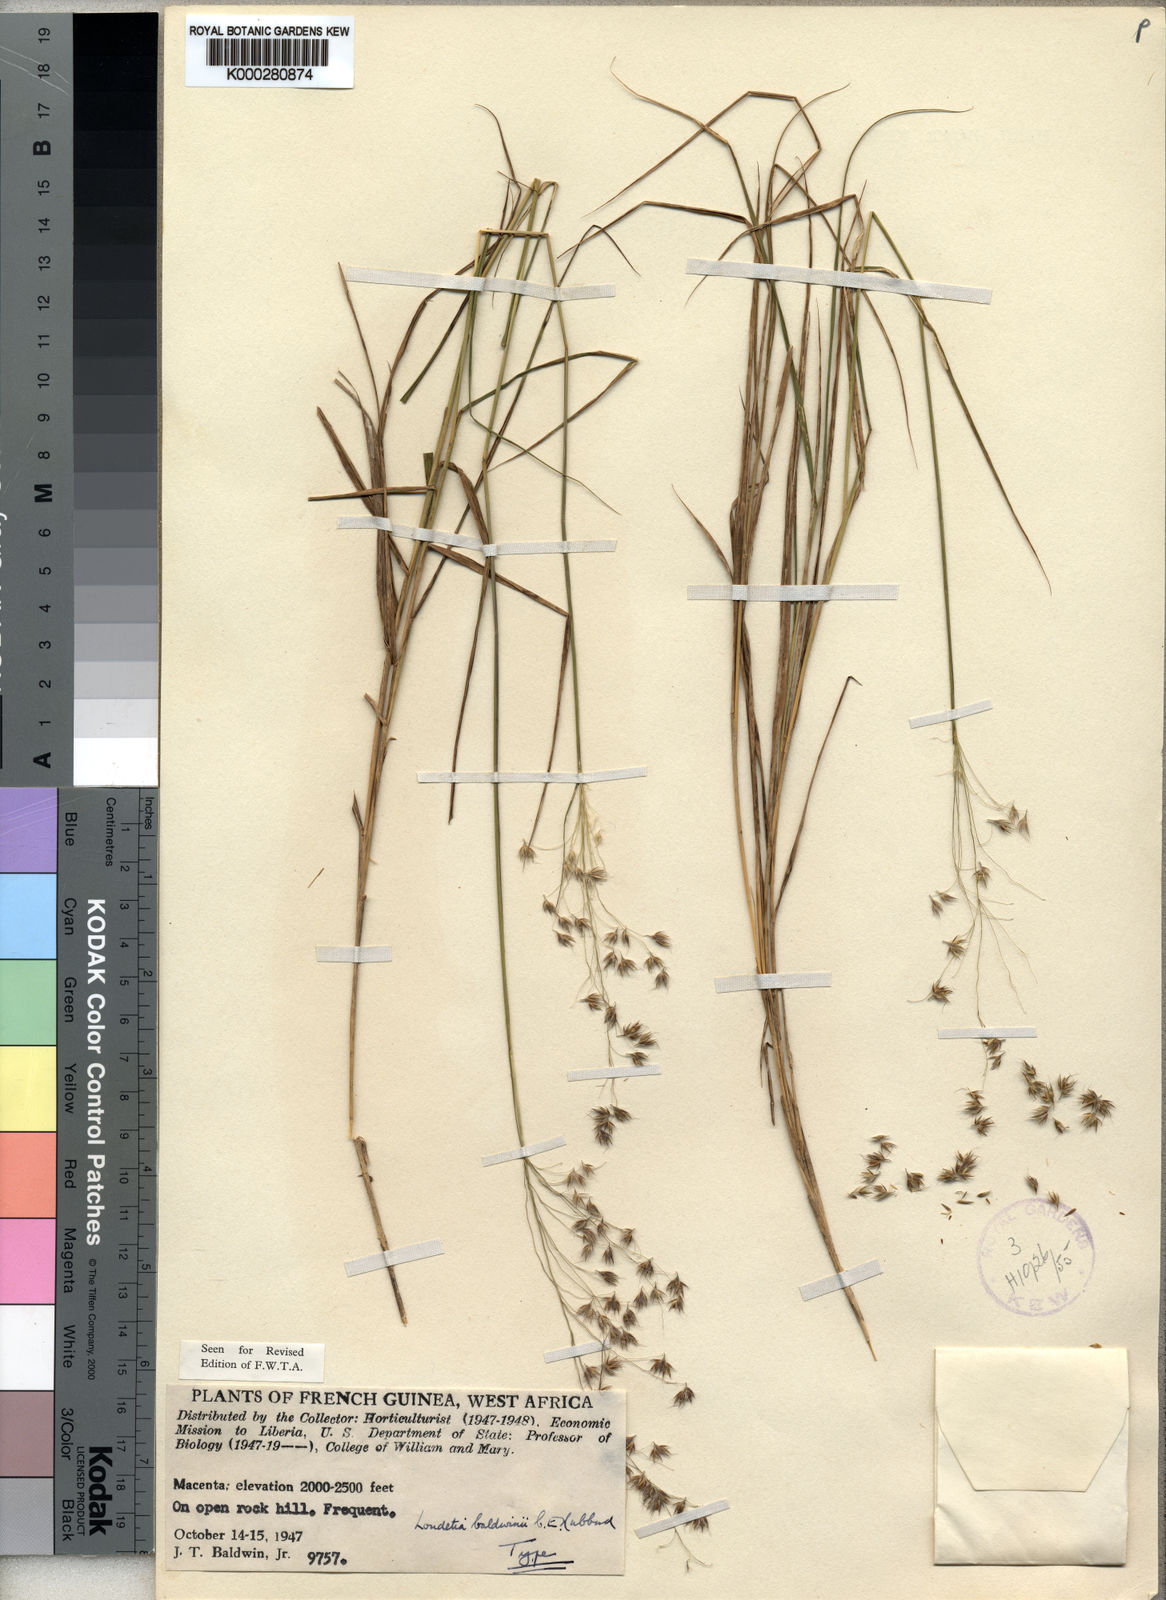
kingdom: Plantae
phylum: Tracheophyta
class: Liliopsida
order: Poales
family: Poaceae
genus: Loudetiopsis
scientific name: Loudetiopsis baldwinii
